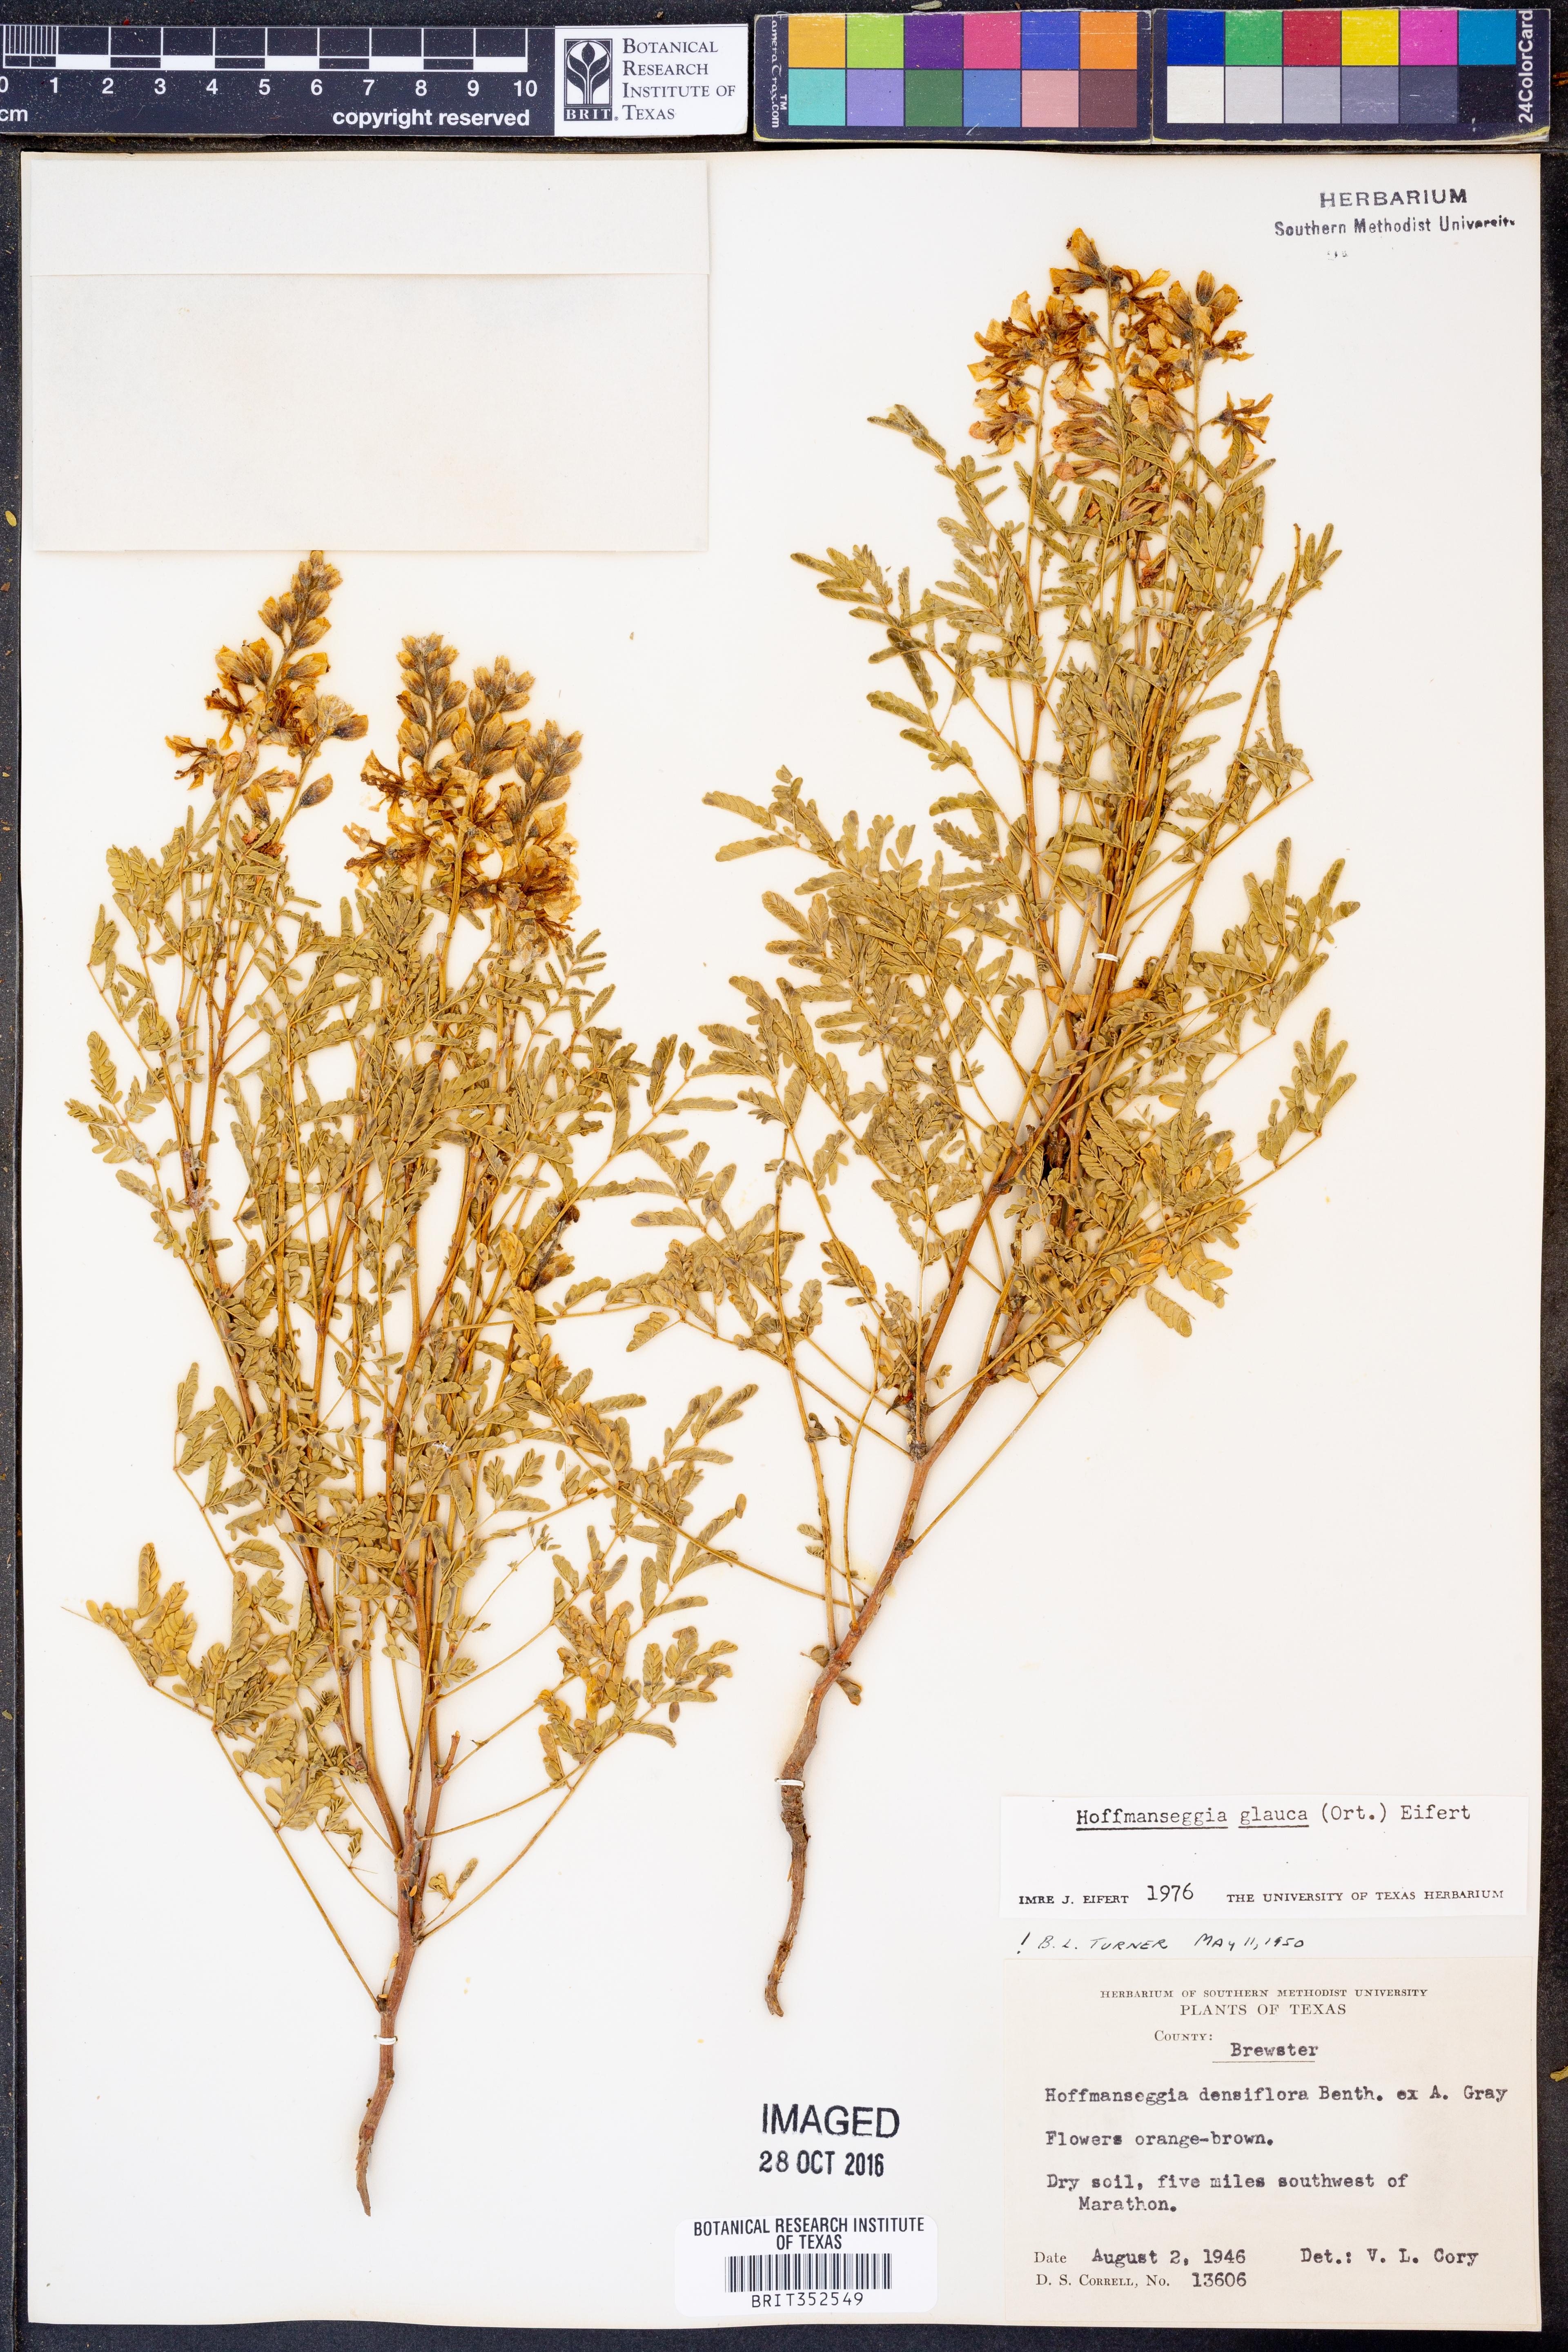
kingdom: Plantae
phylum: Tracheophyta
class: Magnoliopsida
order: Fabales
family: Fabaceae
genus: Hoffmannseggia
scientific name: Hoffmannseggia glauca
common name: Pignut
